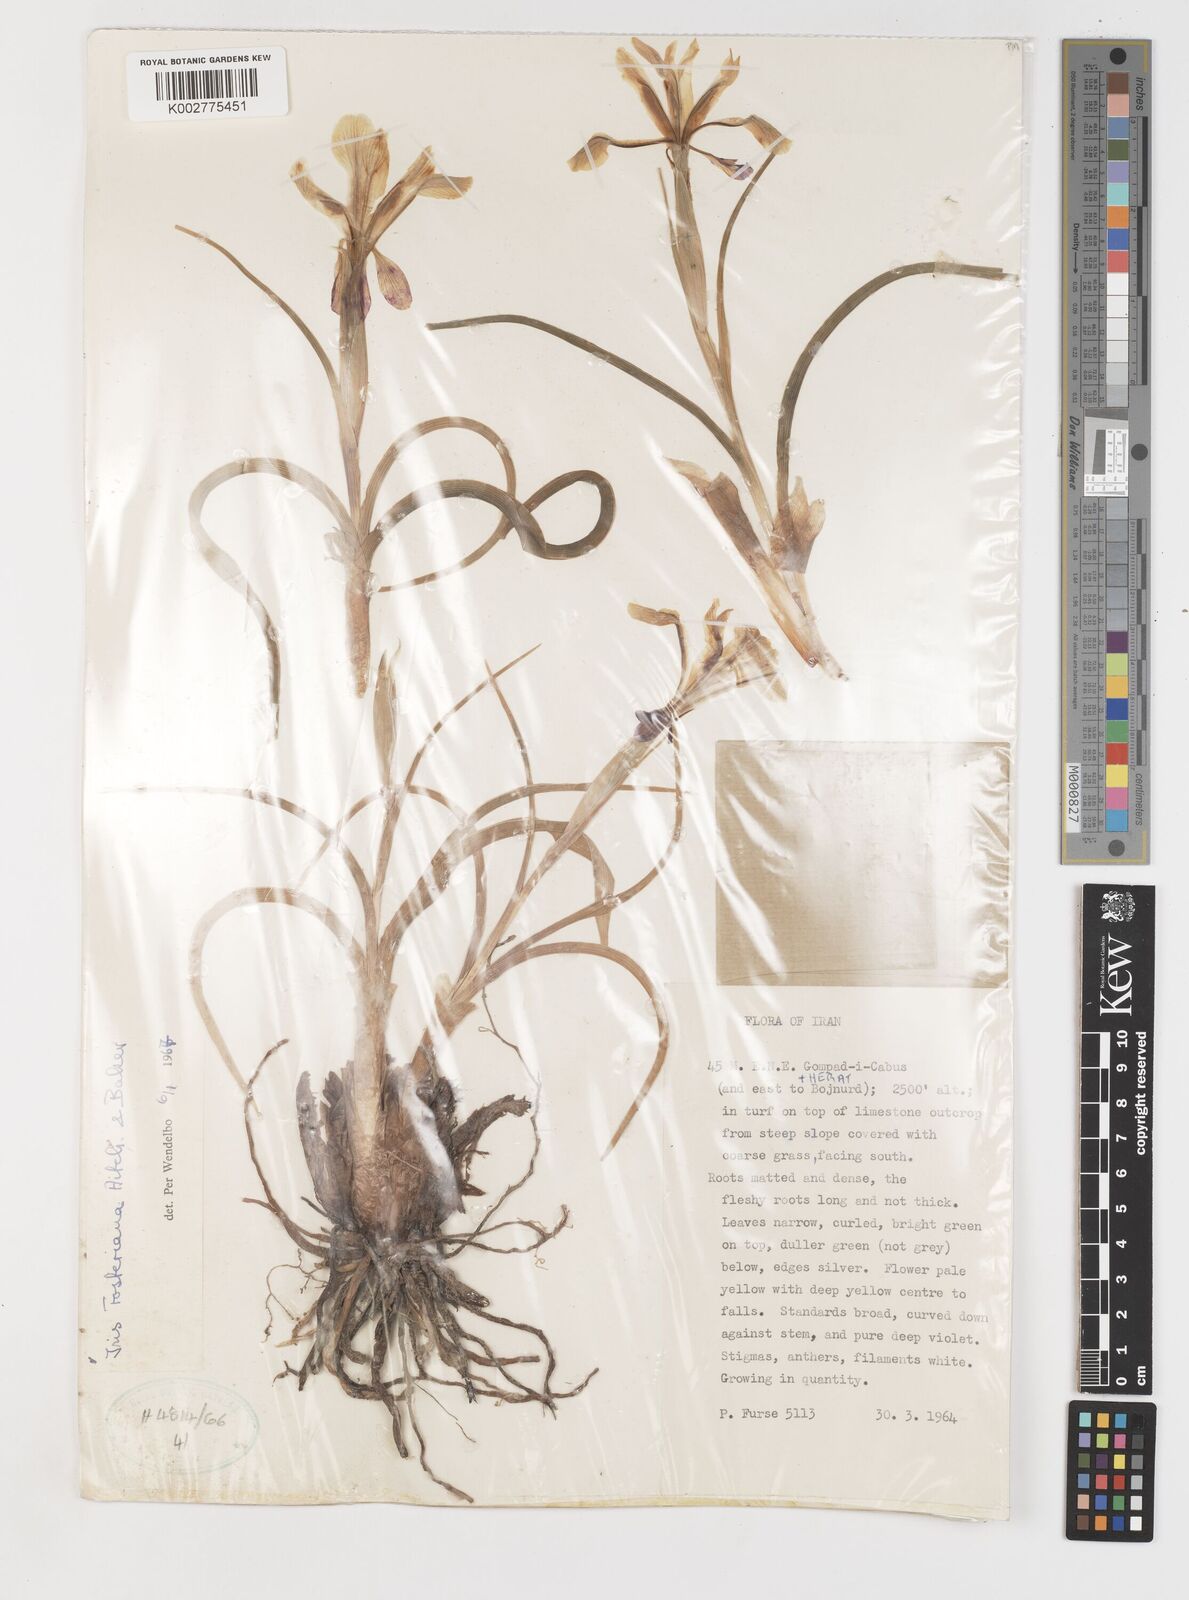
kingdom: Plantae
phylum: Tracheophyta
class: Liliopsida
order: Asparagales
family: Iridaceae
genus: Iris
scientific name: Iris fosteriana
